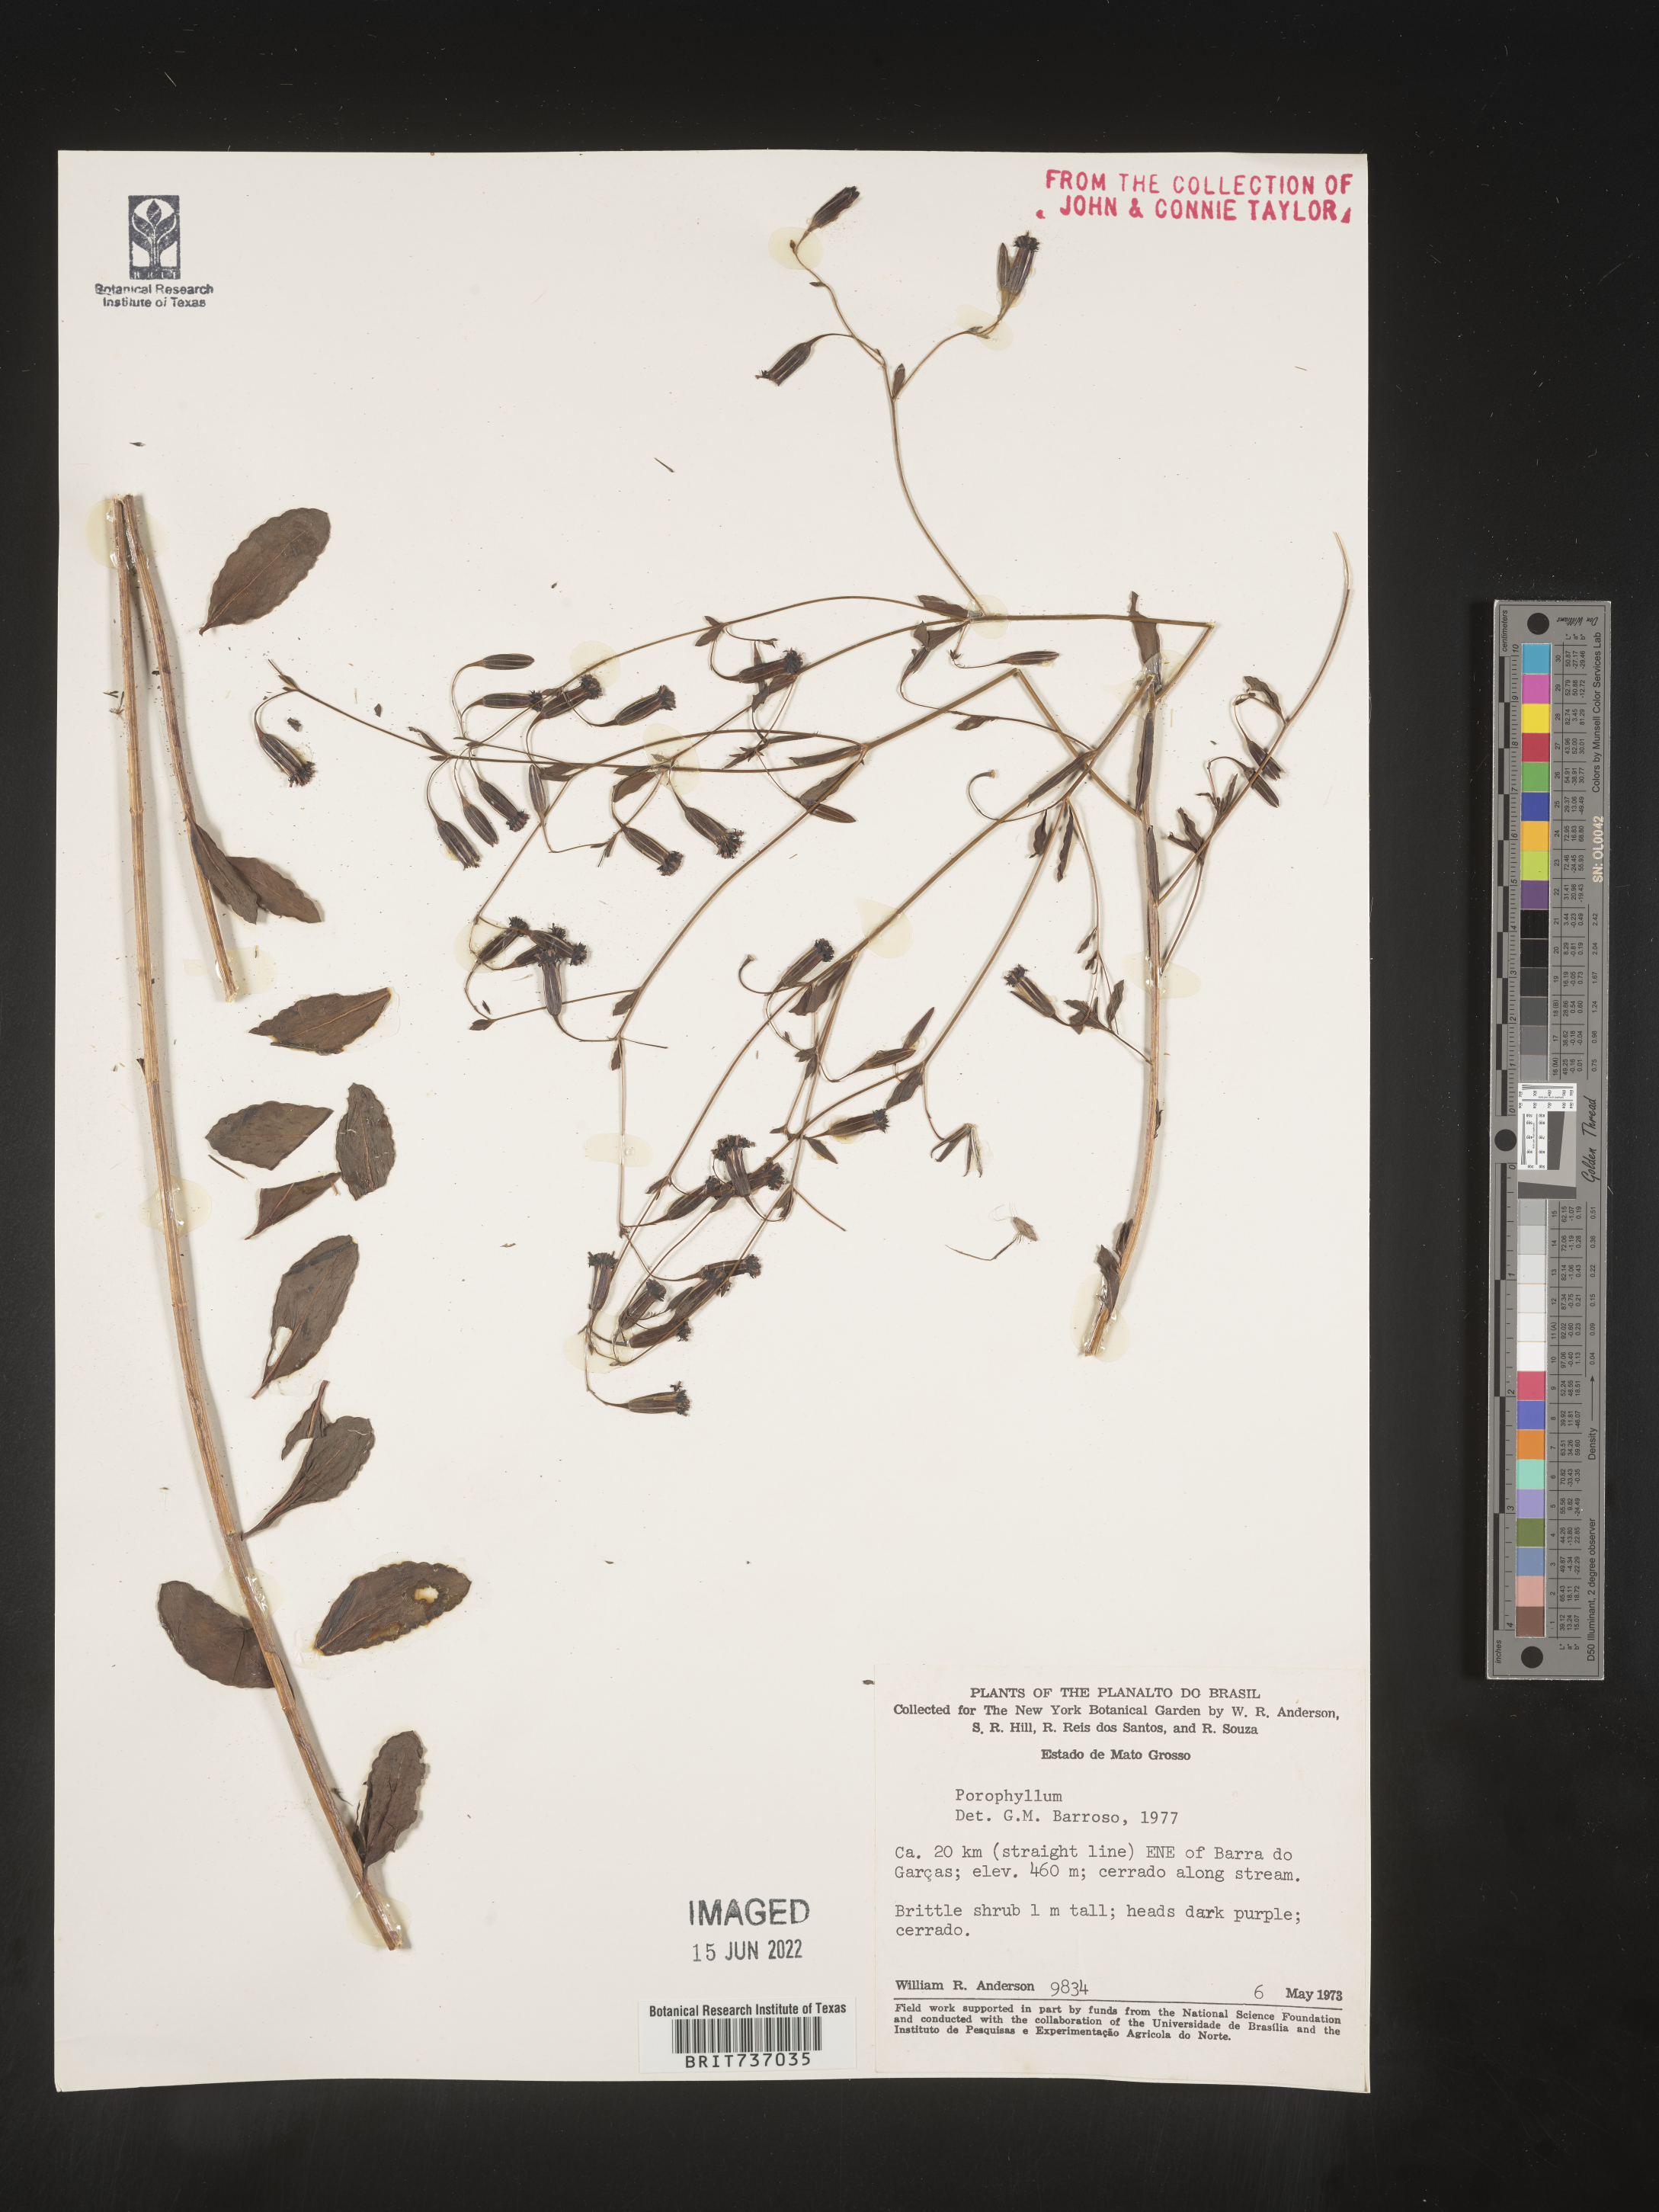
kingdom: Plantae
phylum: Tracheophyta
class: Magnoliopsida
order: Asterales
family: Asteraceae
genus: Porophyllum
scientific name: Porophyllum
